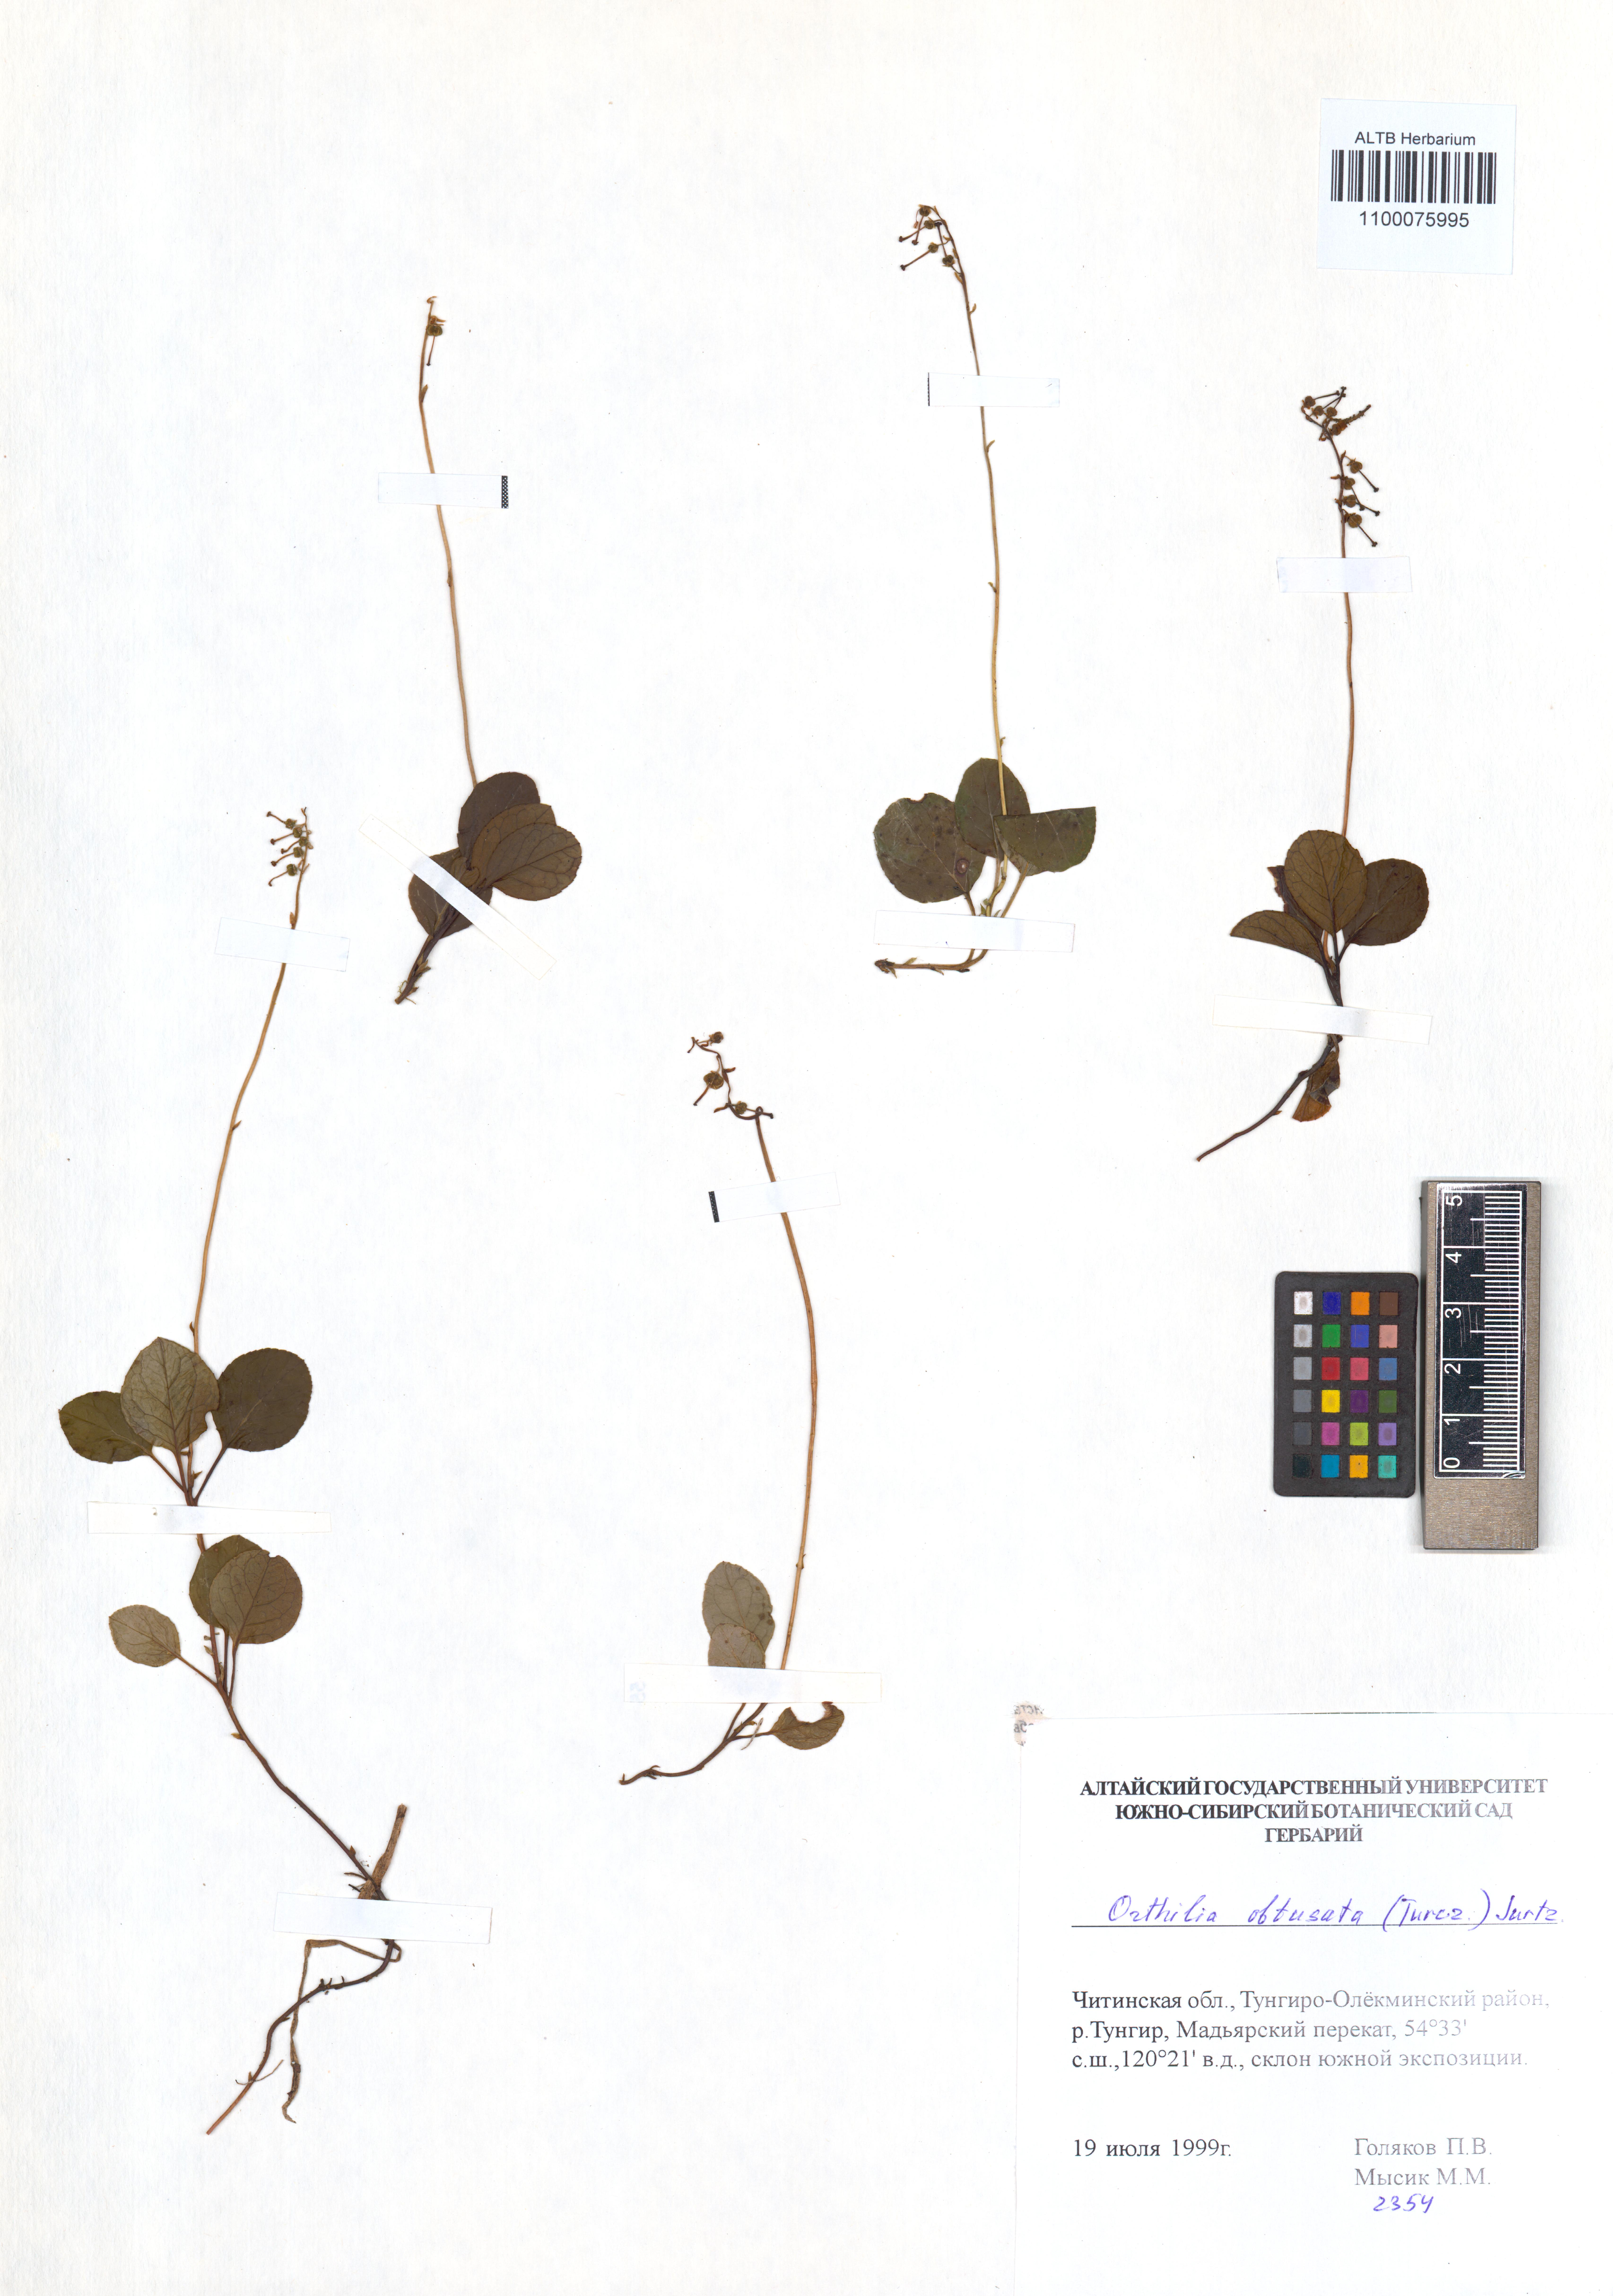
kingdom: Plantae
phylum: Tracheophyta
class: Magnoliopsida
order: Ericales
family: Ericaceae
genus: Orthilia
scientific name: Orthilia secunda
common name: One-sided orthilia
